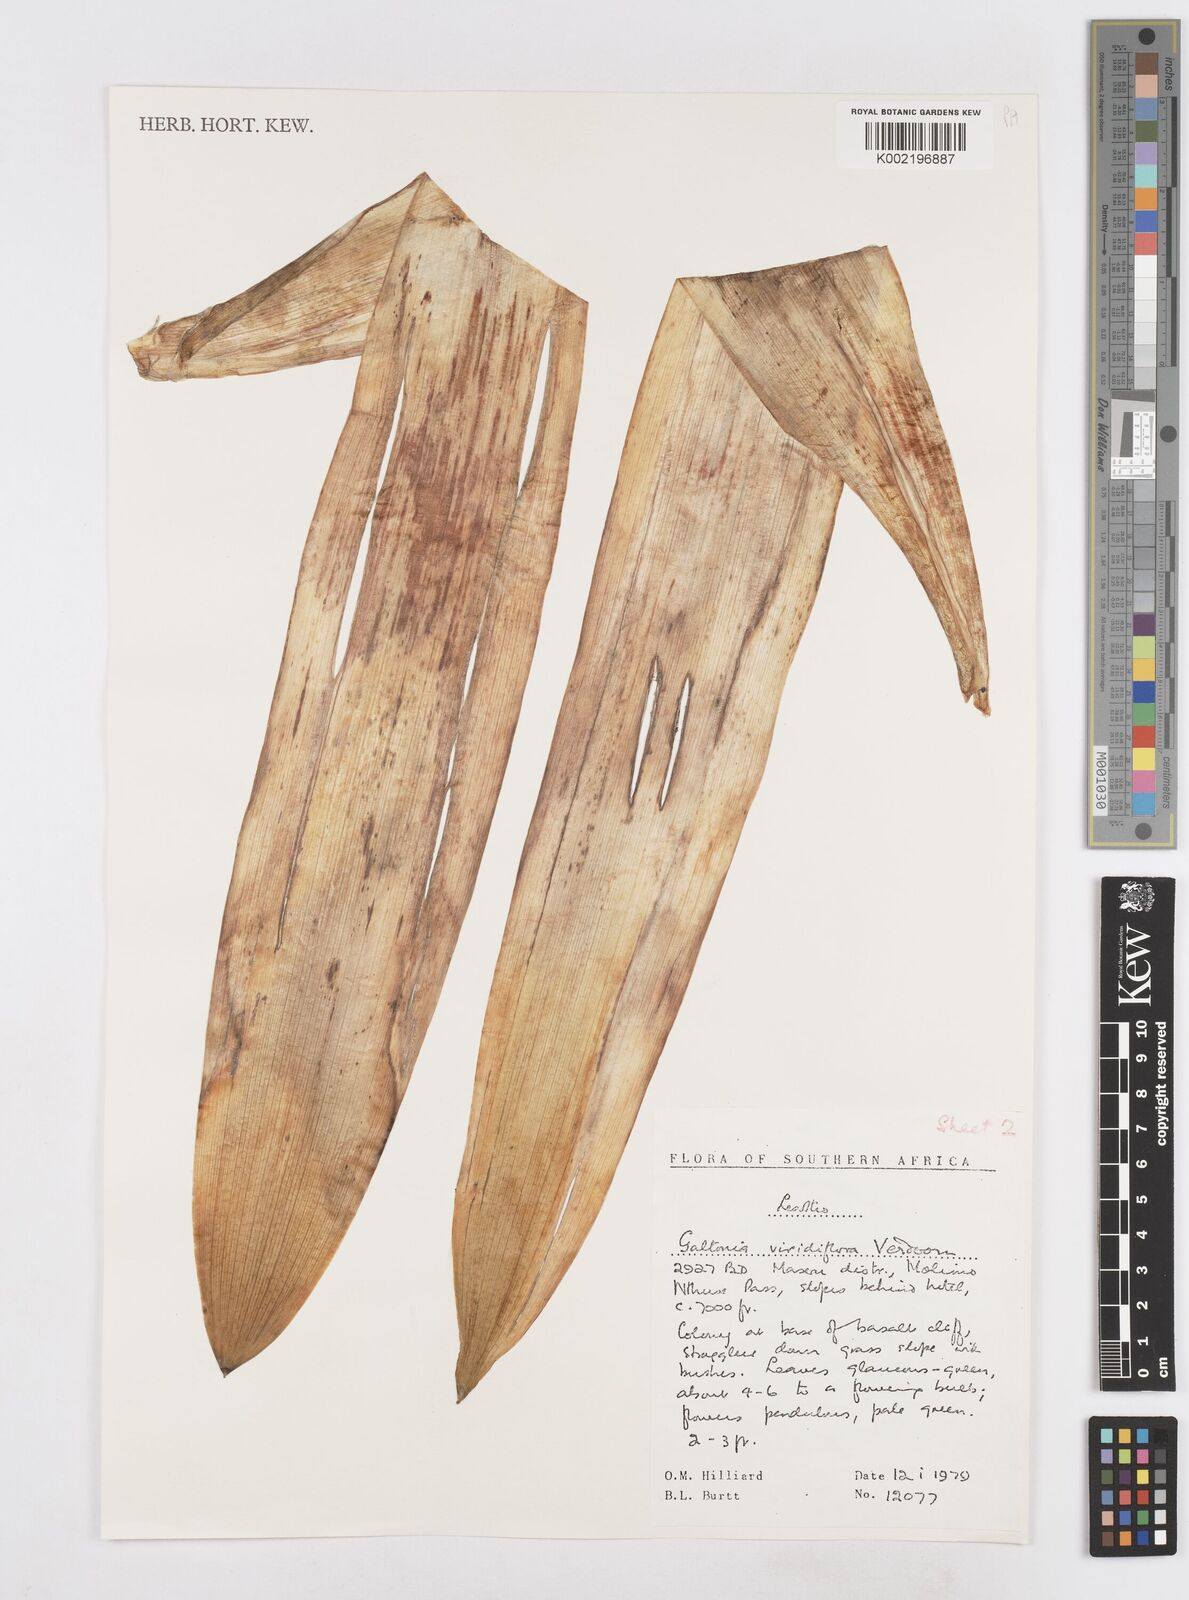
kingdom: Plantae
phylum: Tracheophyta
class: Liliopsida
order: Asparagales
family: Asparagaceae
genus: Ornithogalum
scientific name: Ornithogalum viridiflorum
